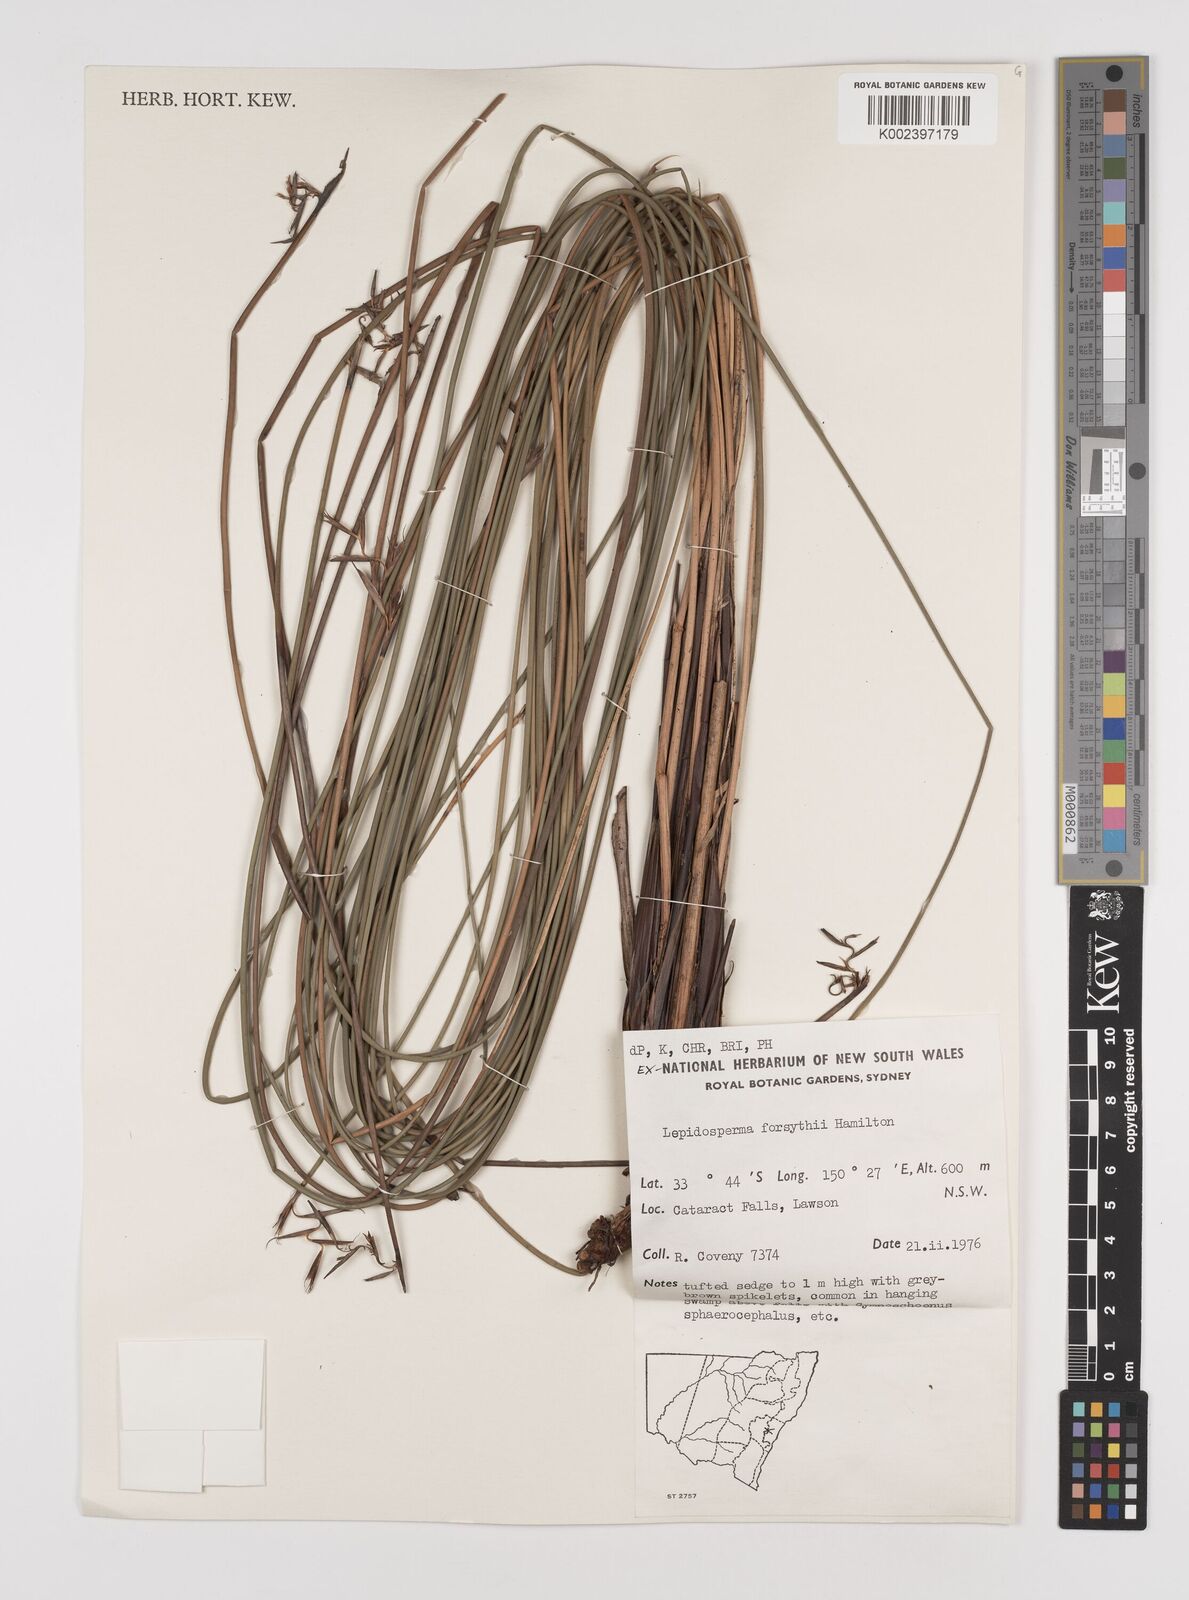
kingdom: Plantae
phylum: Tracheophyta
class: Liliopsida
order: Poales
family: Cyperaceae
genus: Lepidosperma
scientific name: Lepidosperma forsythii
